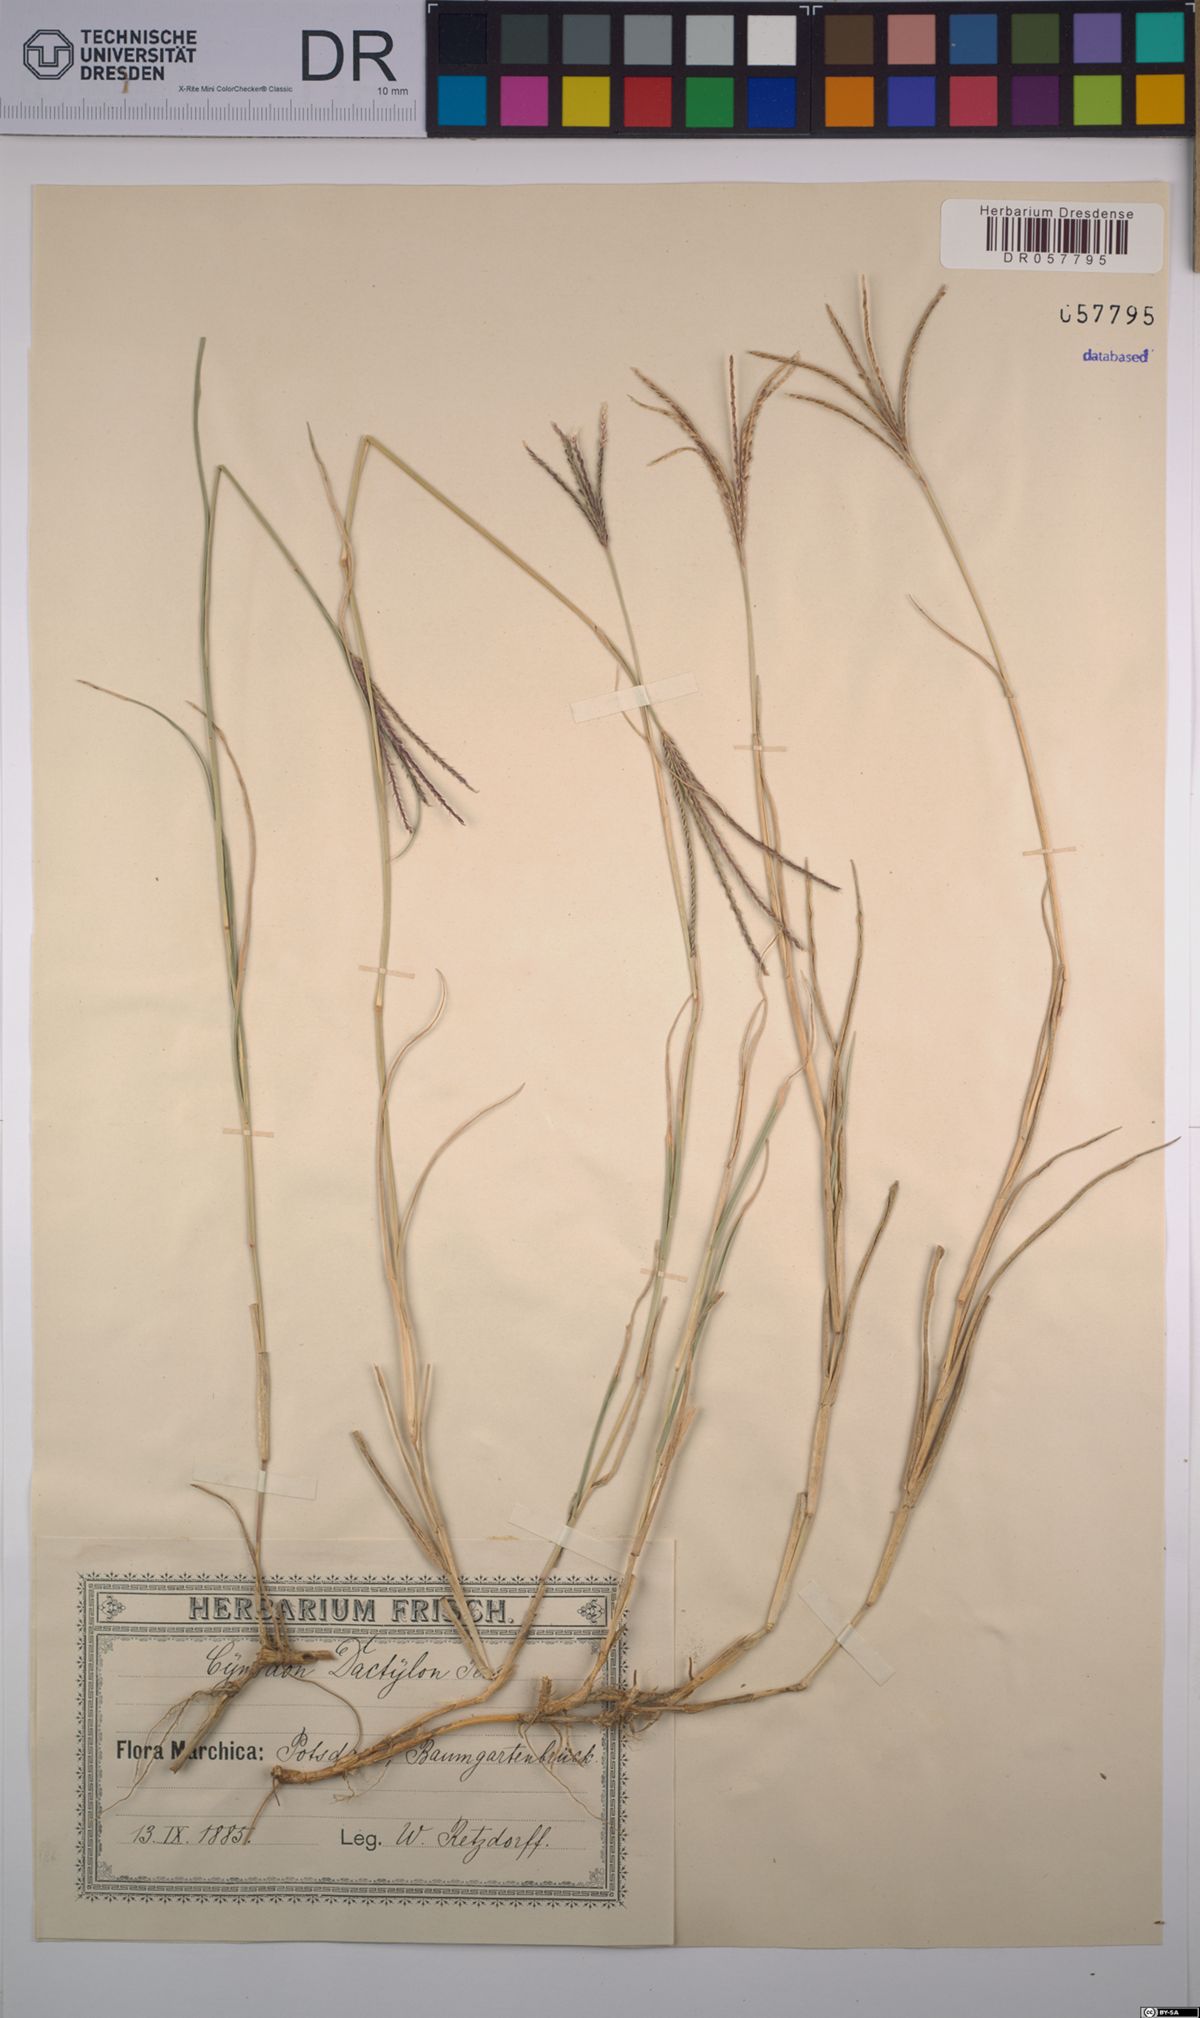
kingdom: Plantae
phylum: Tracheophyta
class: Liliopsida
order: Poales
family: Poaceae
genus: Cynodon
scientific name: Cynodon dactylon
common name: Bermuda grass
